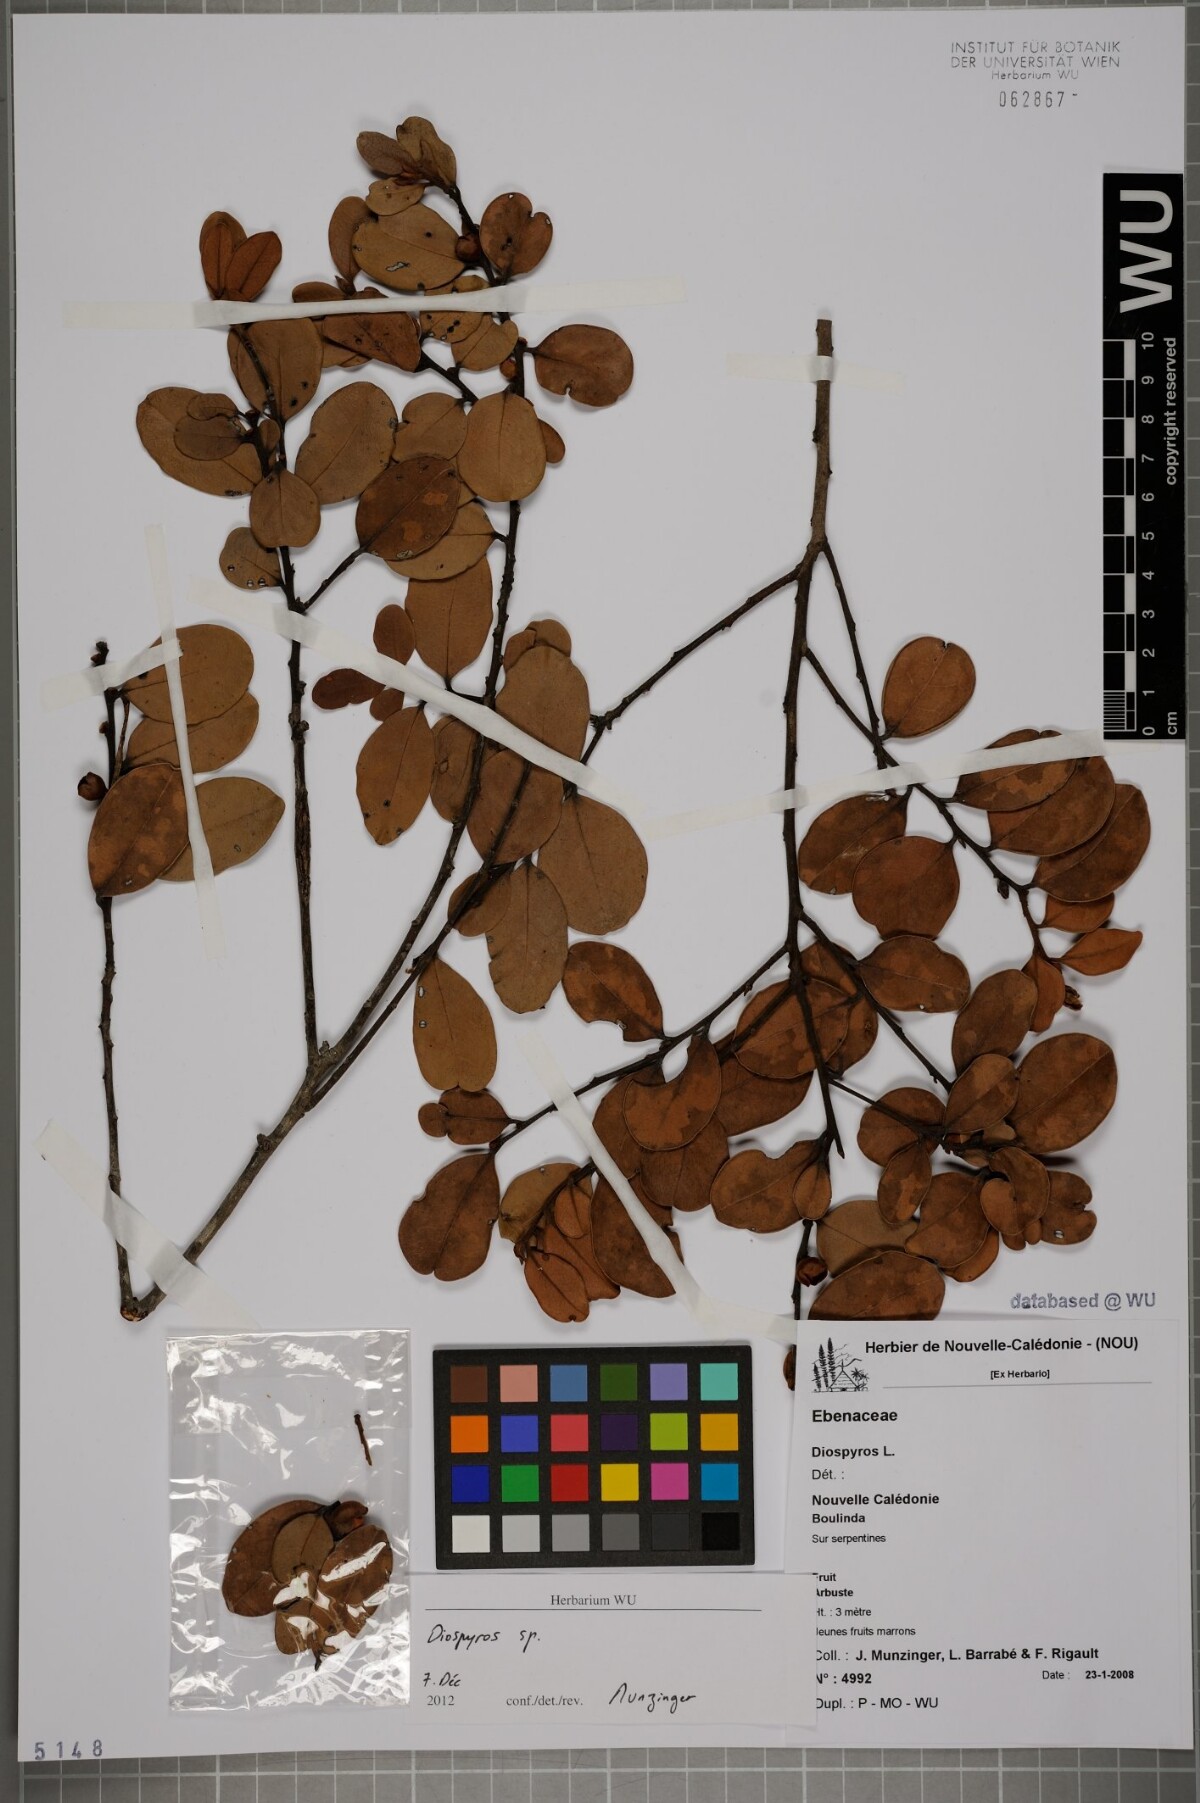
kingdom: Plantae
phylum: Tracheophyta
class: Magnoliopsida
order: Ericales
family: Ebenaceae
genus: Diospyros
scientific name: Diospyros
